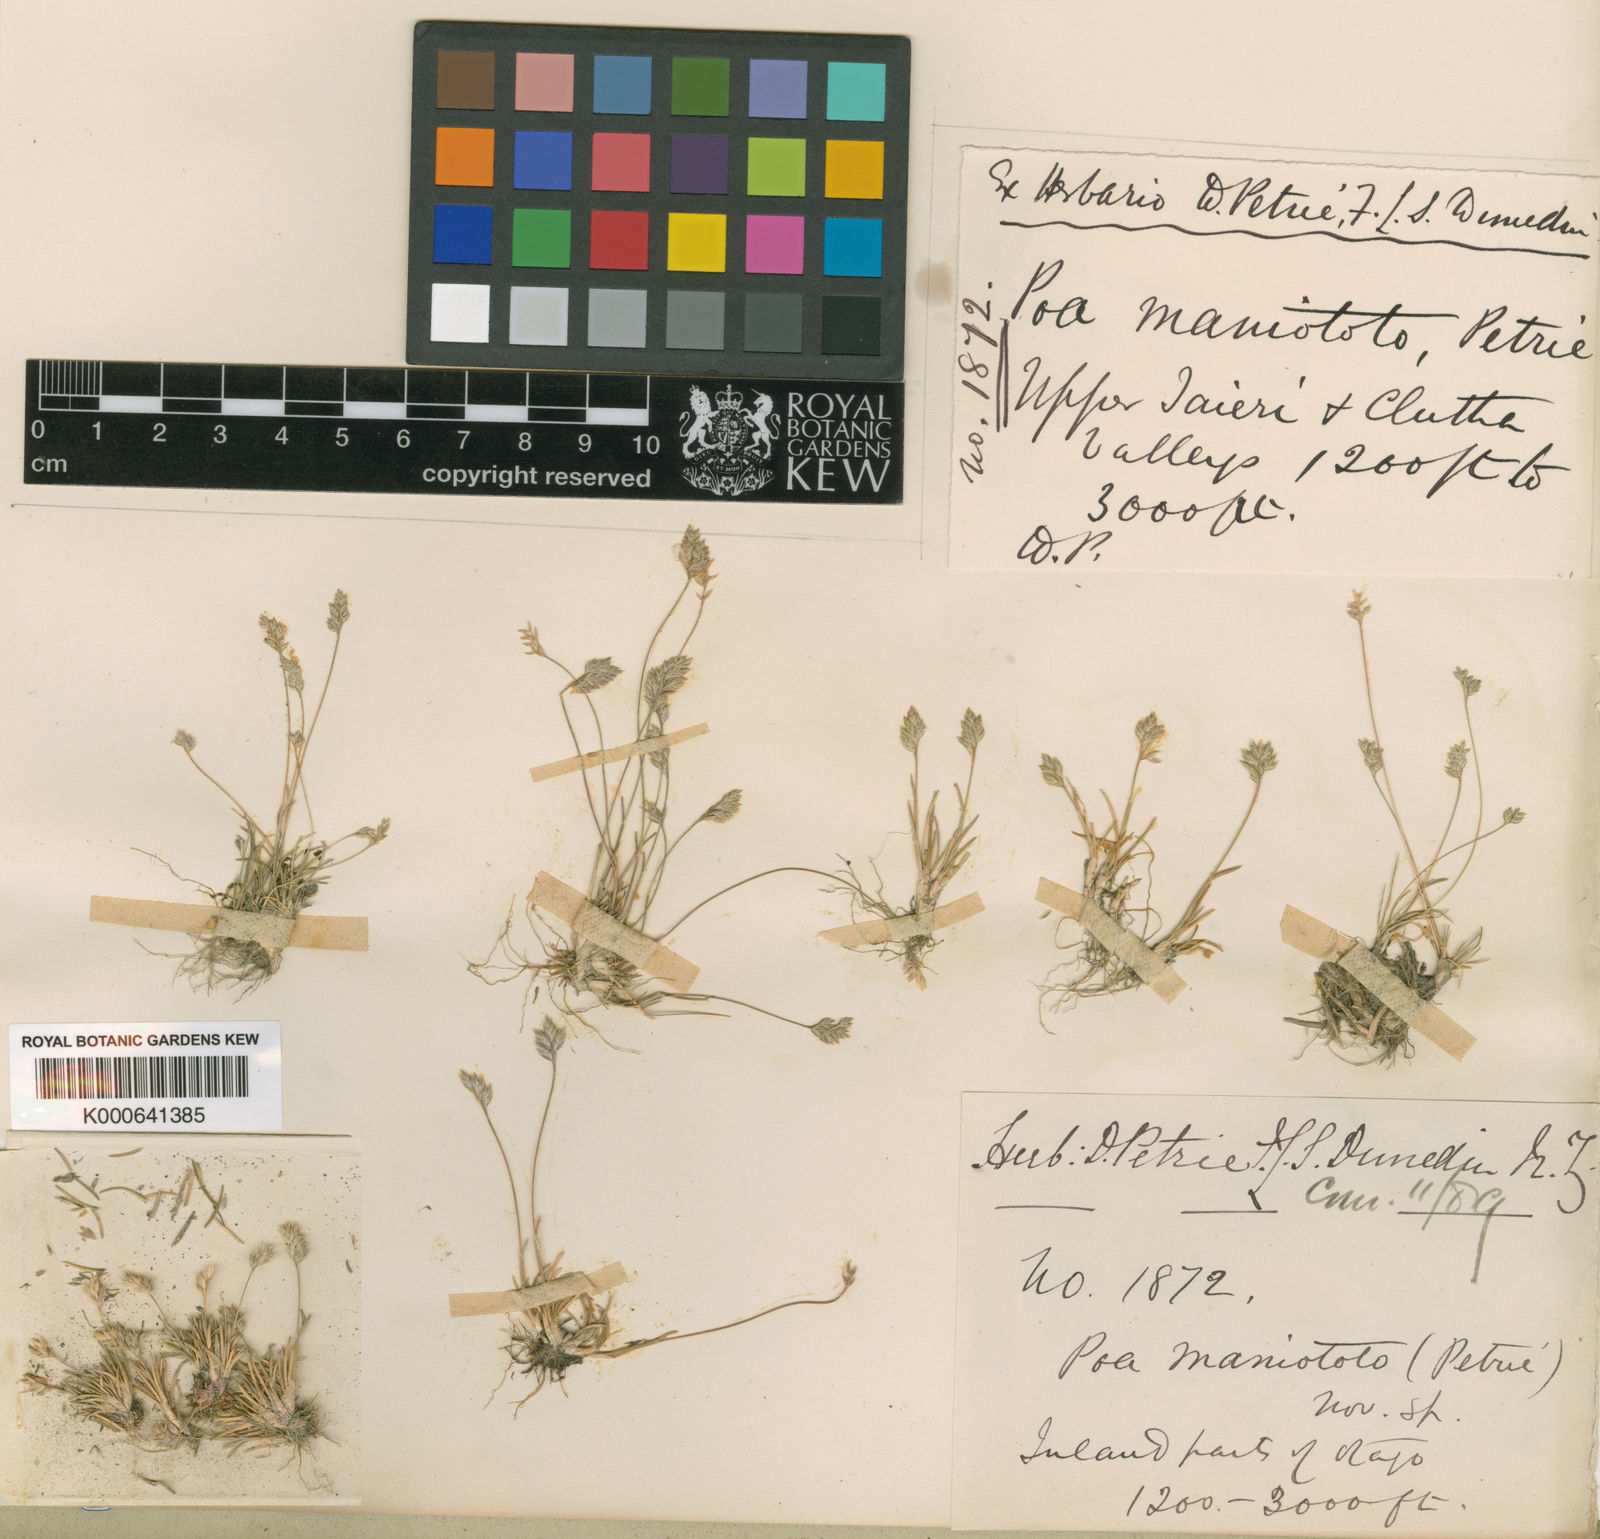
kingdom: Plantae
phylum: Tracheophyta
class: Liliopsida
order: Poales
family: Poaceae
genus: Poa
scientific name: Poa maniototo
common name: Desert poa
